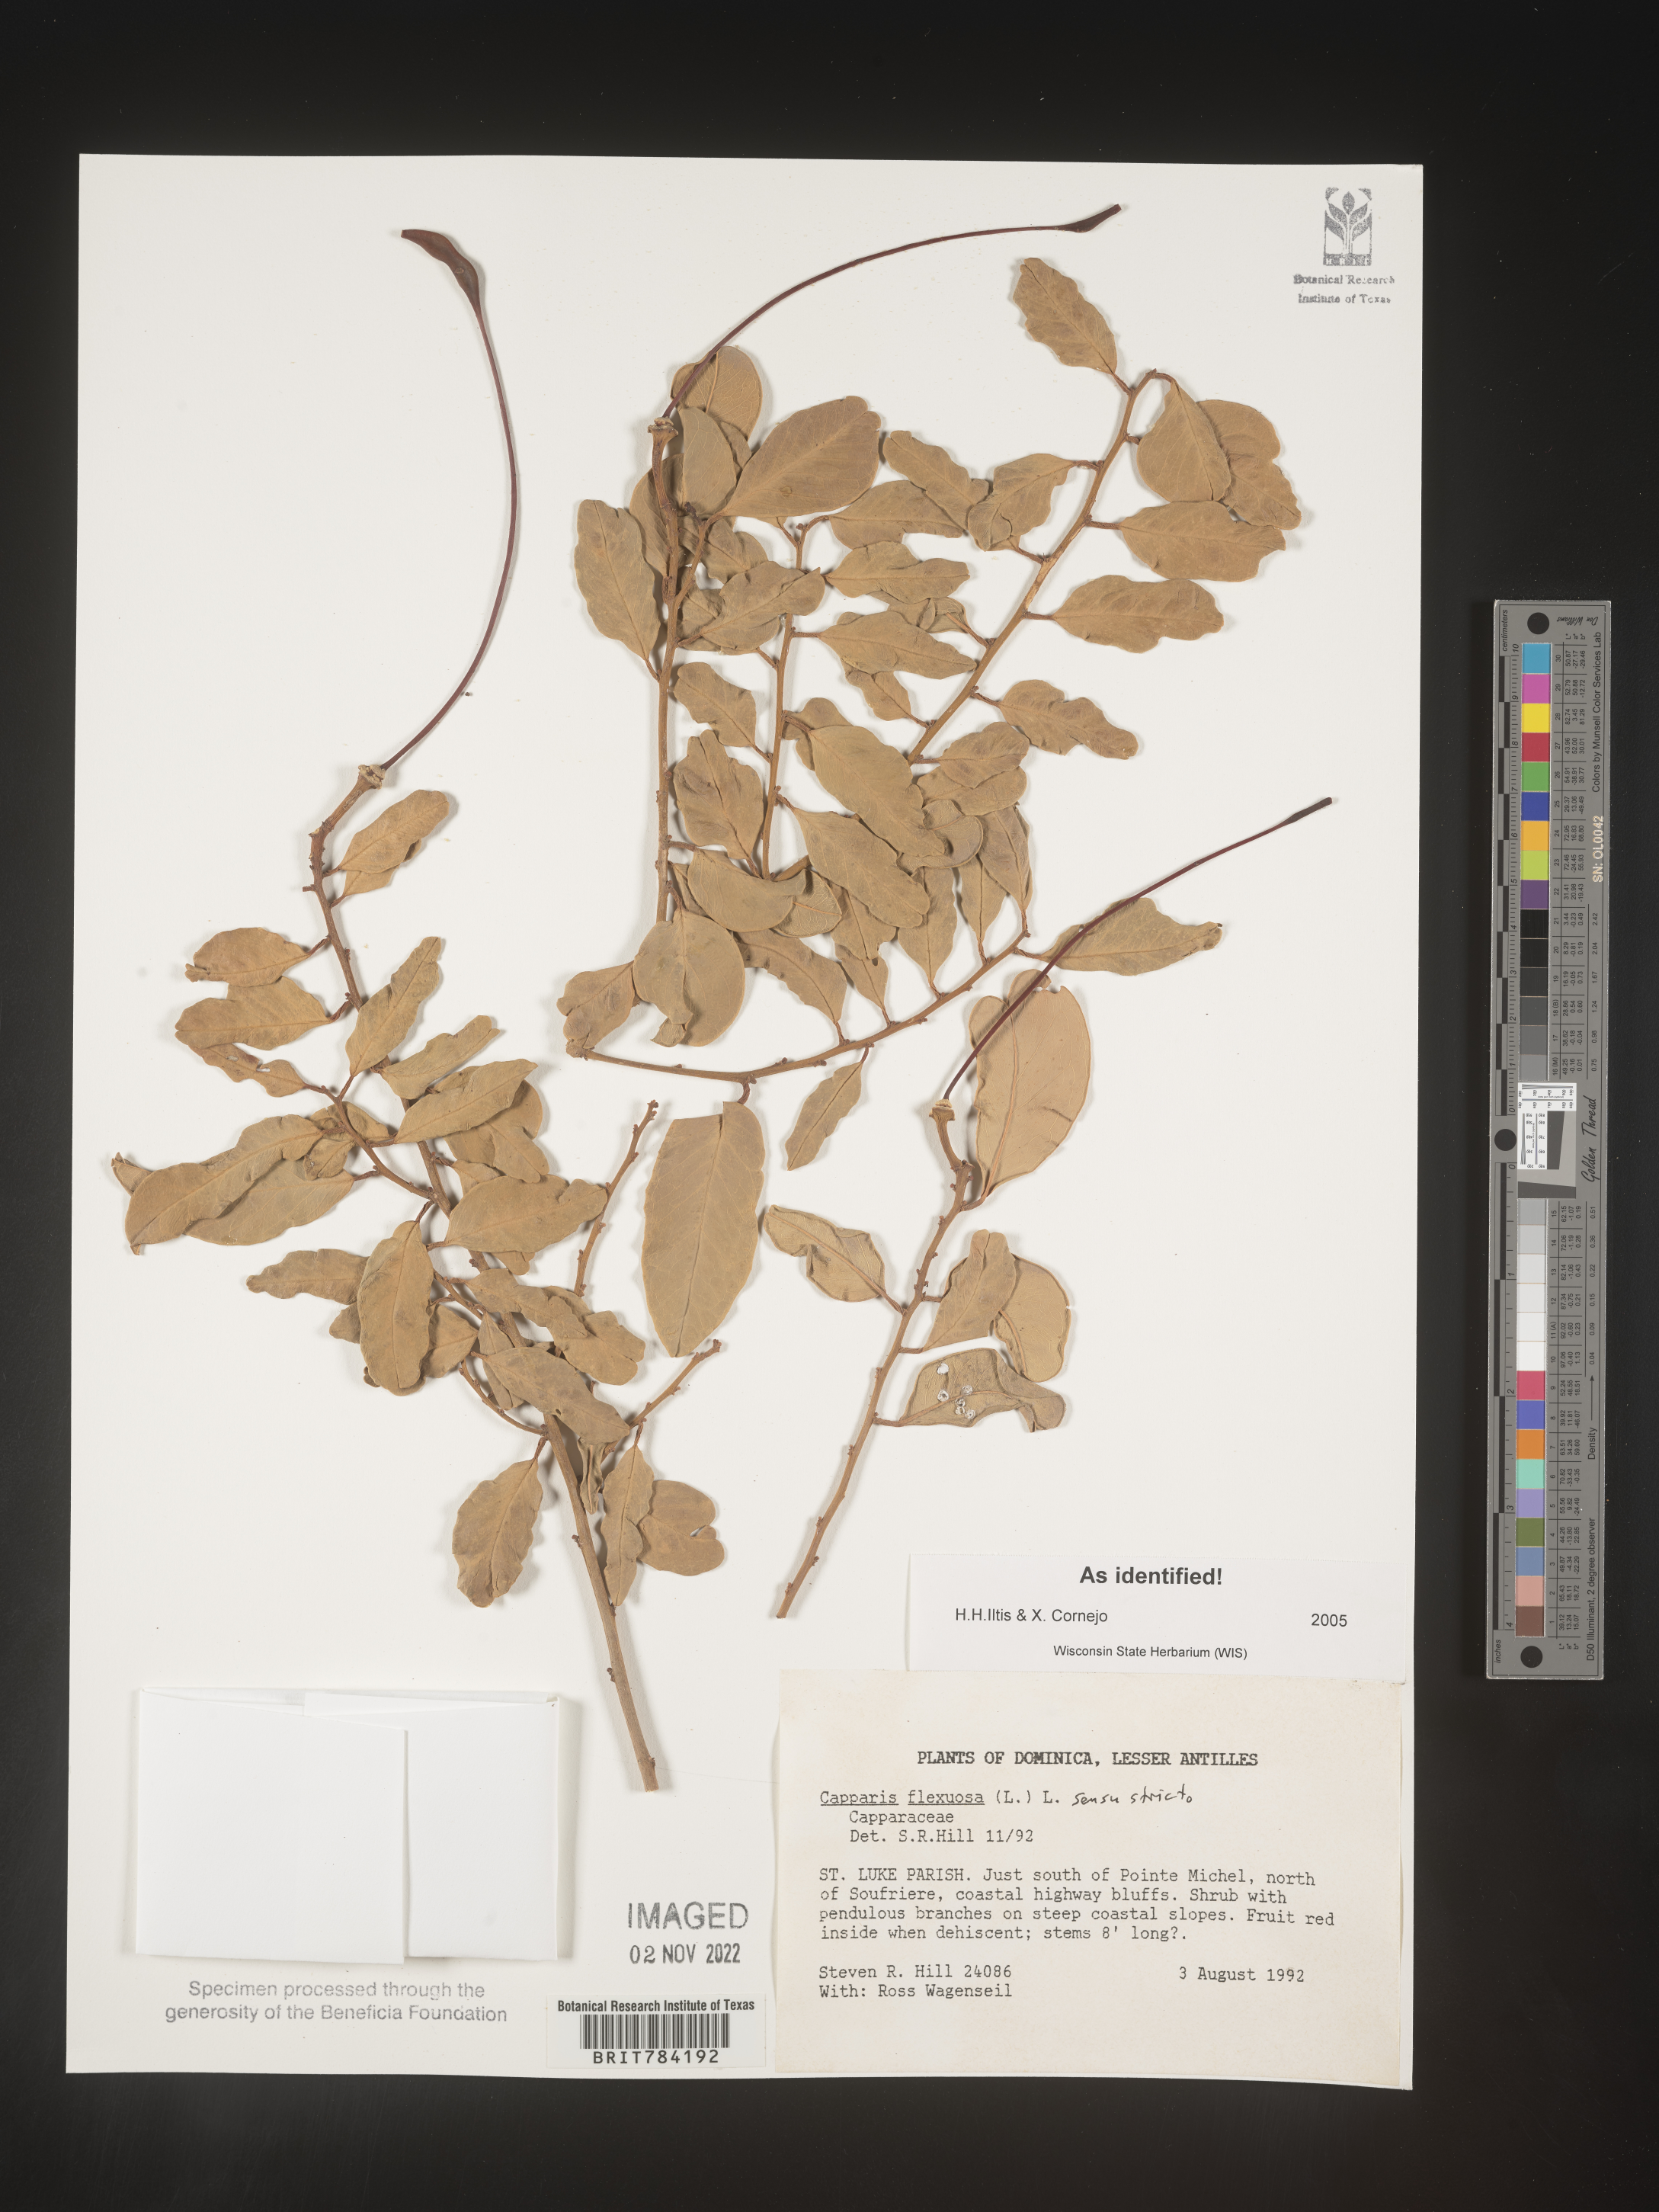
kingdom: Plantae
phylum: Tracheophyta
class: Magnoliopsida
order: Brassicales
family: Capparaceae
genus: Capparis
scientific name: Capparis
